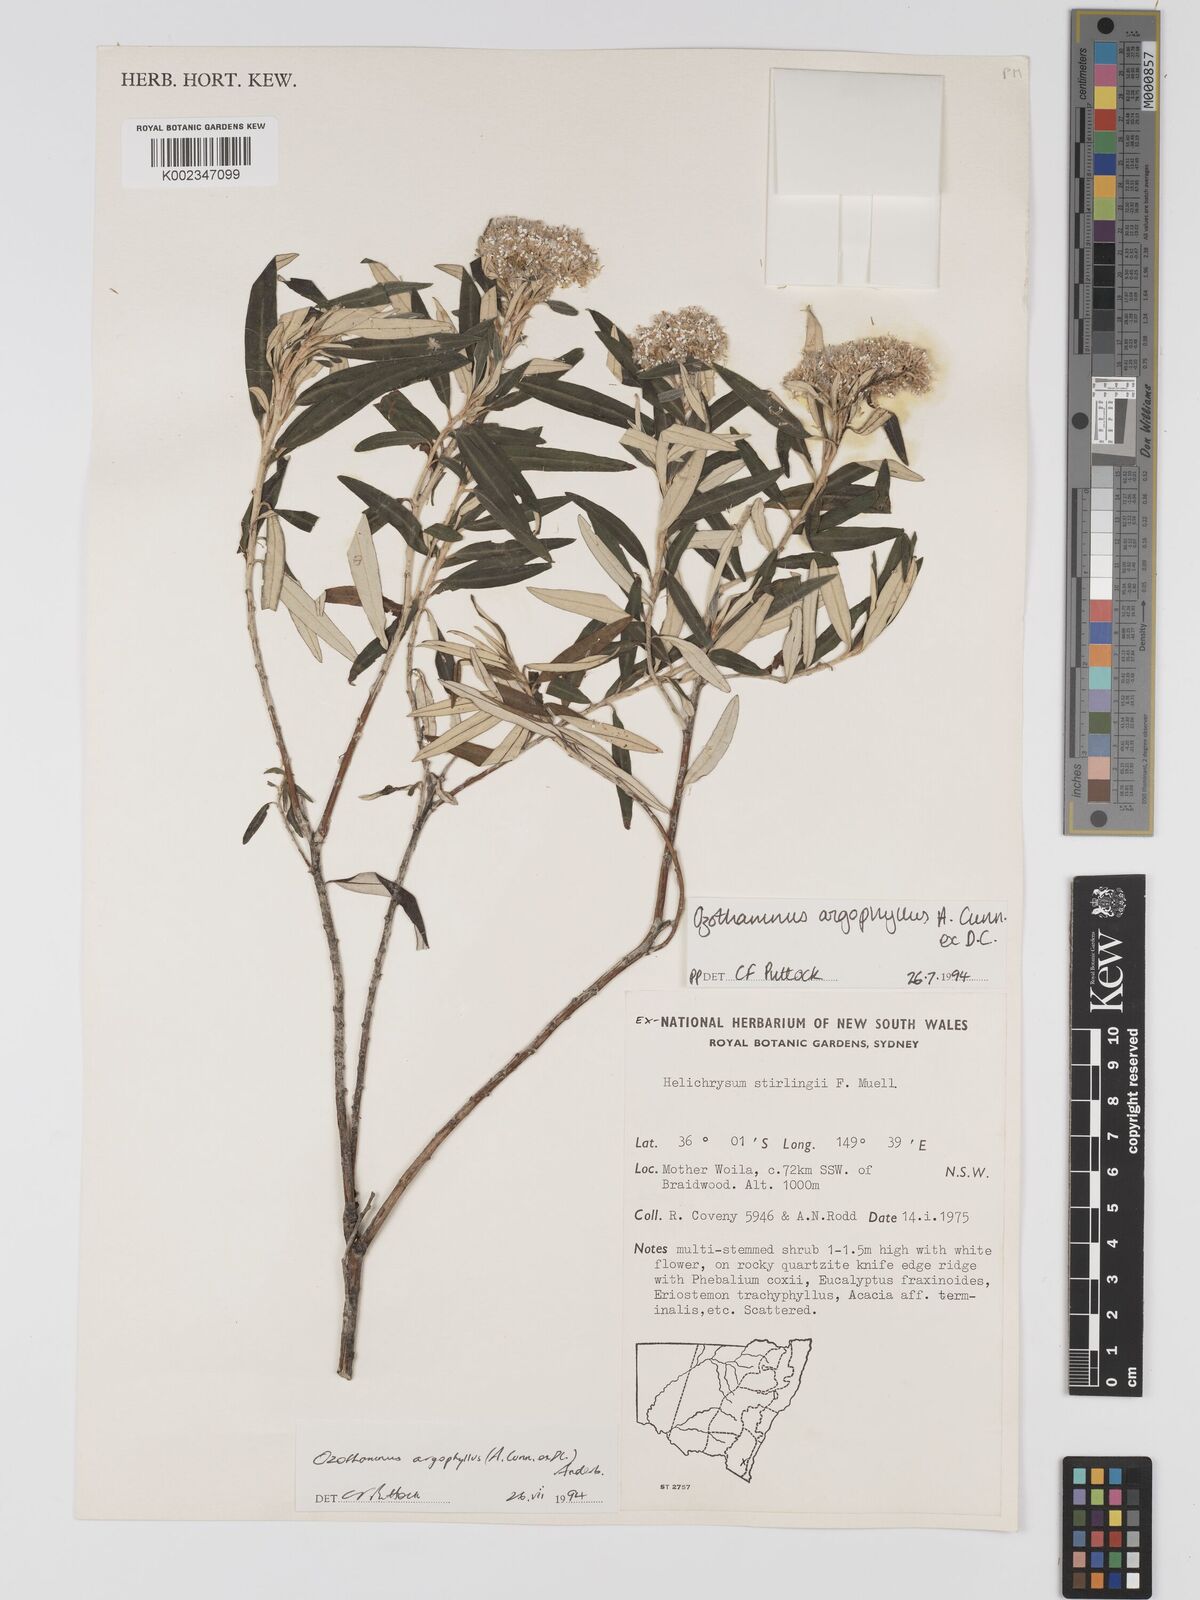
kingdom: Plantae
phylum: Tracheophyta
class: Magnoliopsida
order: Asterales
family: Asteraceae
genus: Ozothamnus
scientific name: Ozothamnus argophyllus
